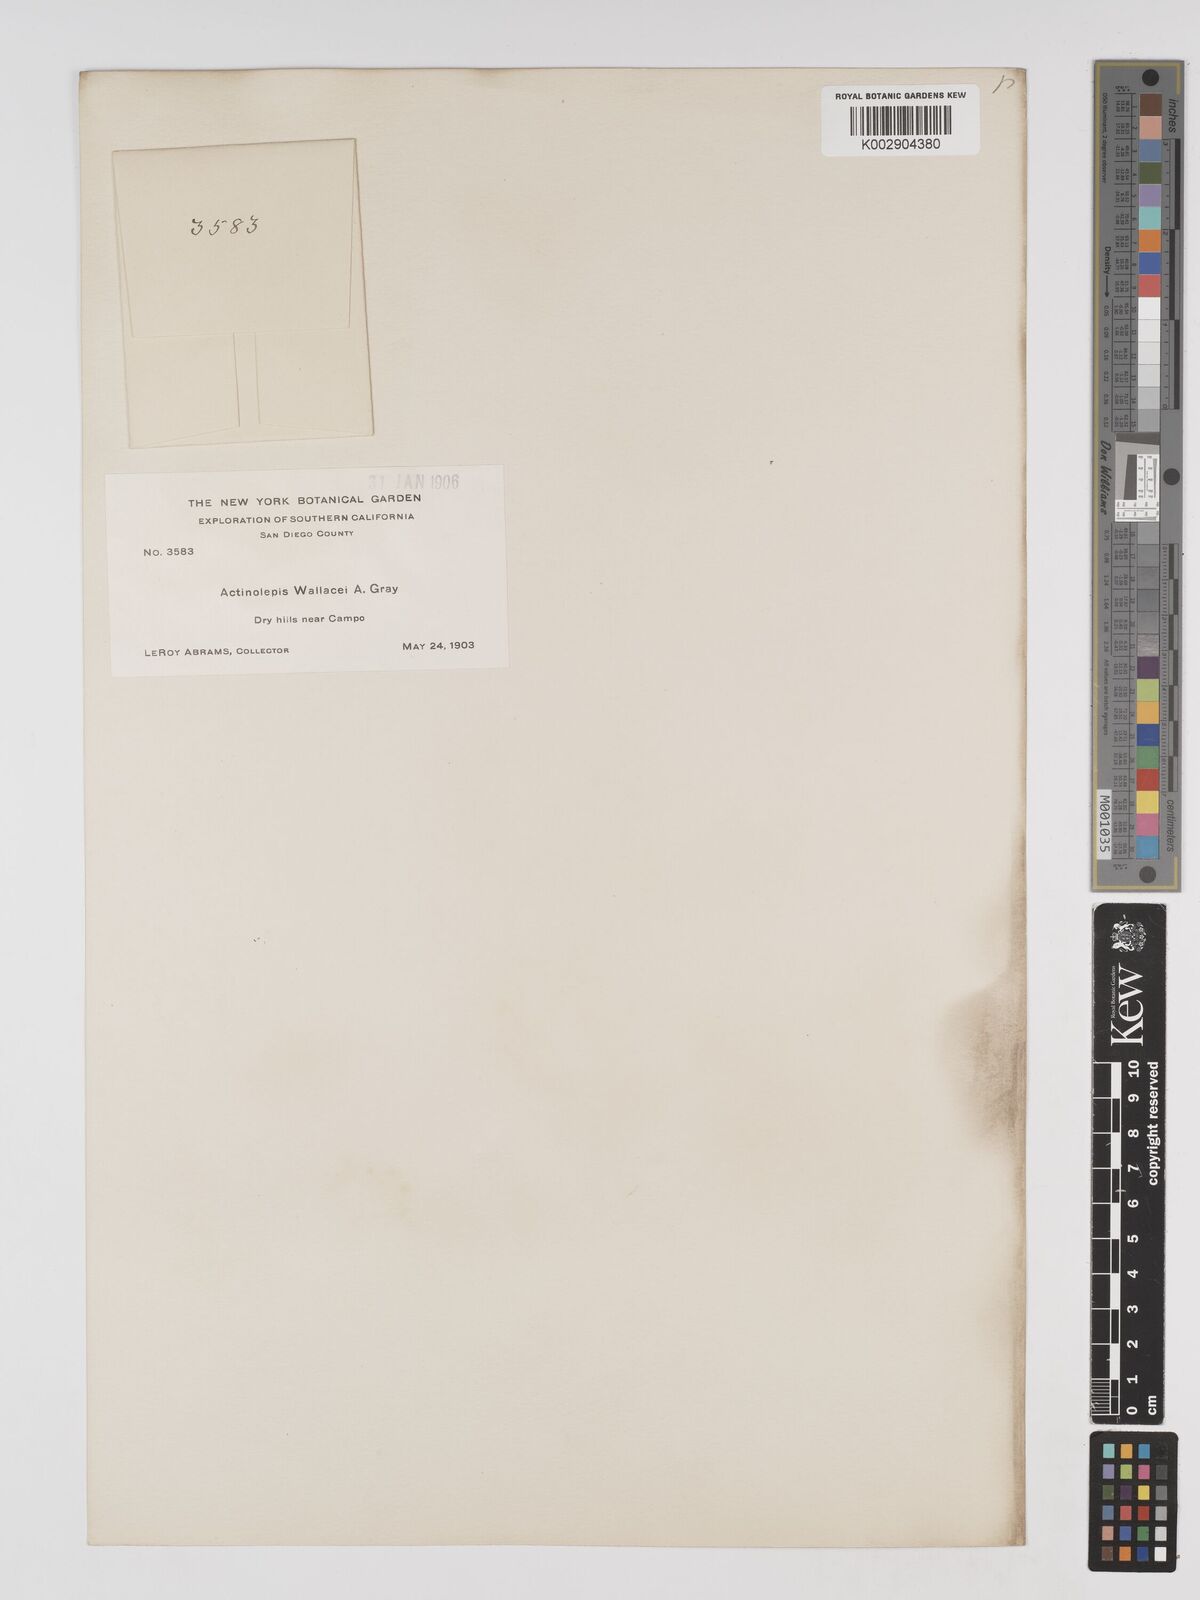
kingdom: Plantae
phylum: Tracheophyta
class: Magnoliopsida
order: Asterales
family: Asteraceae
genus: Eriophyllum
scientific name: Eriophyllum lanosum
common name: White easter-bonnets
